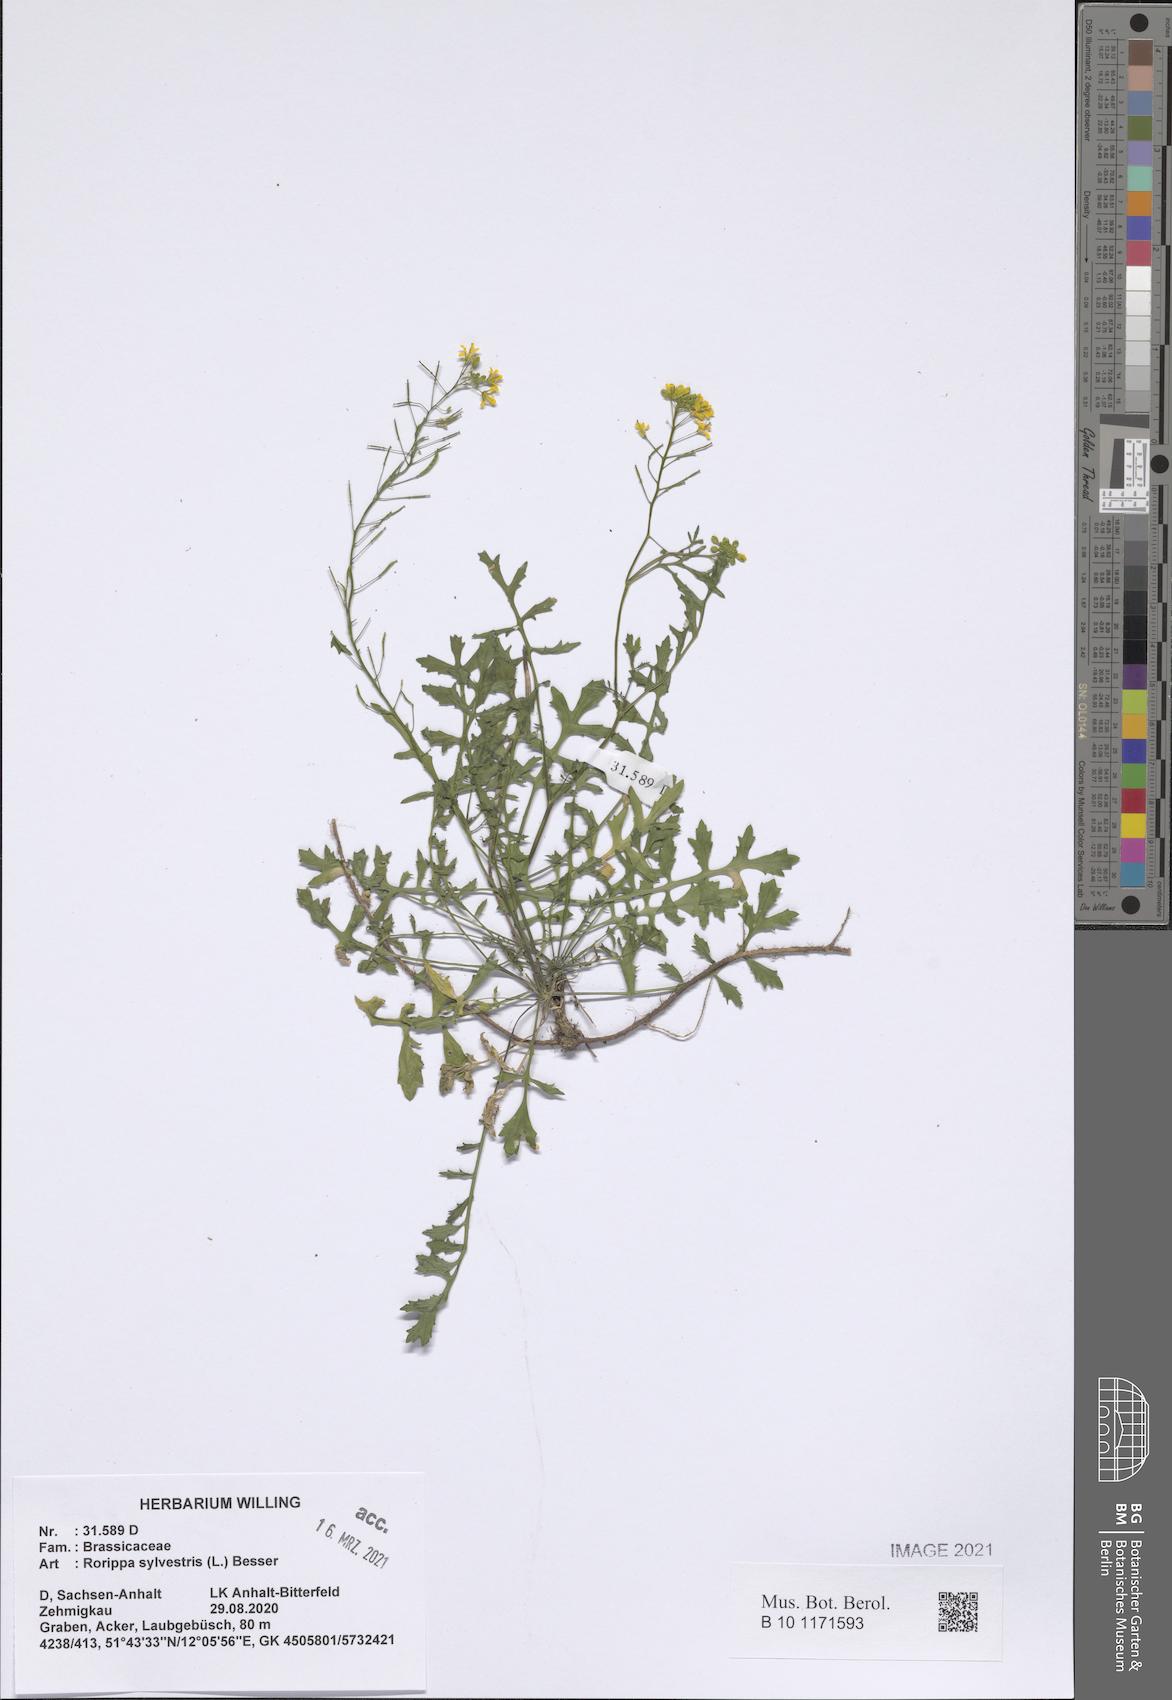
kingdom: Plantae
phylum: Tracheophyta
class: Magnoliopsida
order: Brassicales
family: Brassicaceae
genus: Rorippa
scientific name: Rorippa sylvestris
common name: Creeping yellowcress
